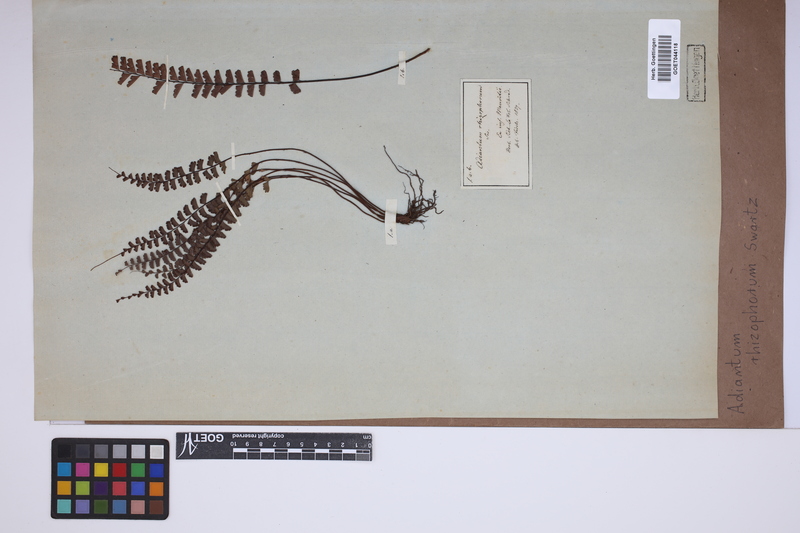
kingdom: Plantae
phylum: Tracheophyta
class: Polypodiopsida
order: Polypodiales
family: Pteridaceae
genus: Adiantum
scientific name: Adiantum rhizophorum
